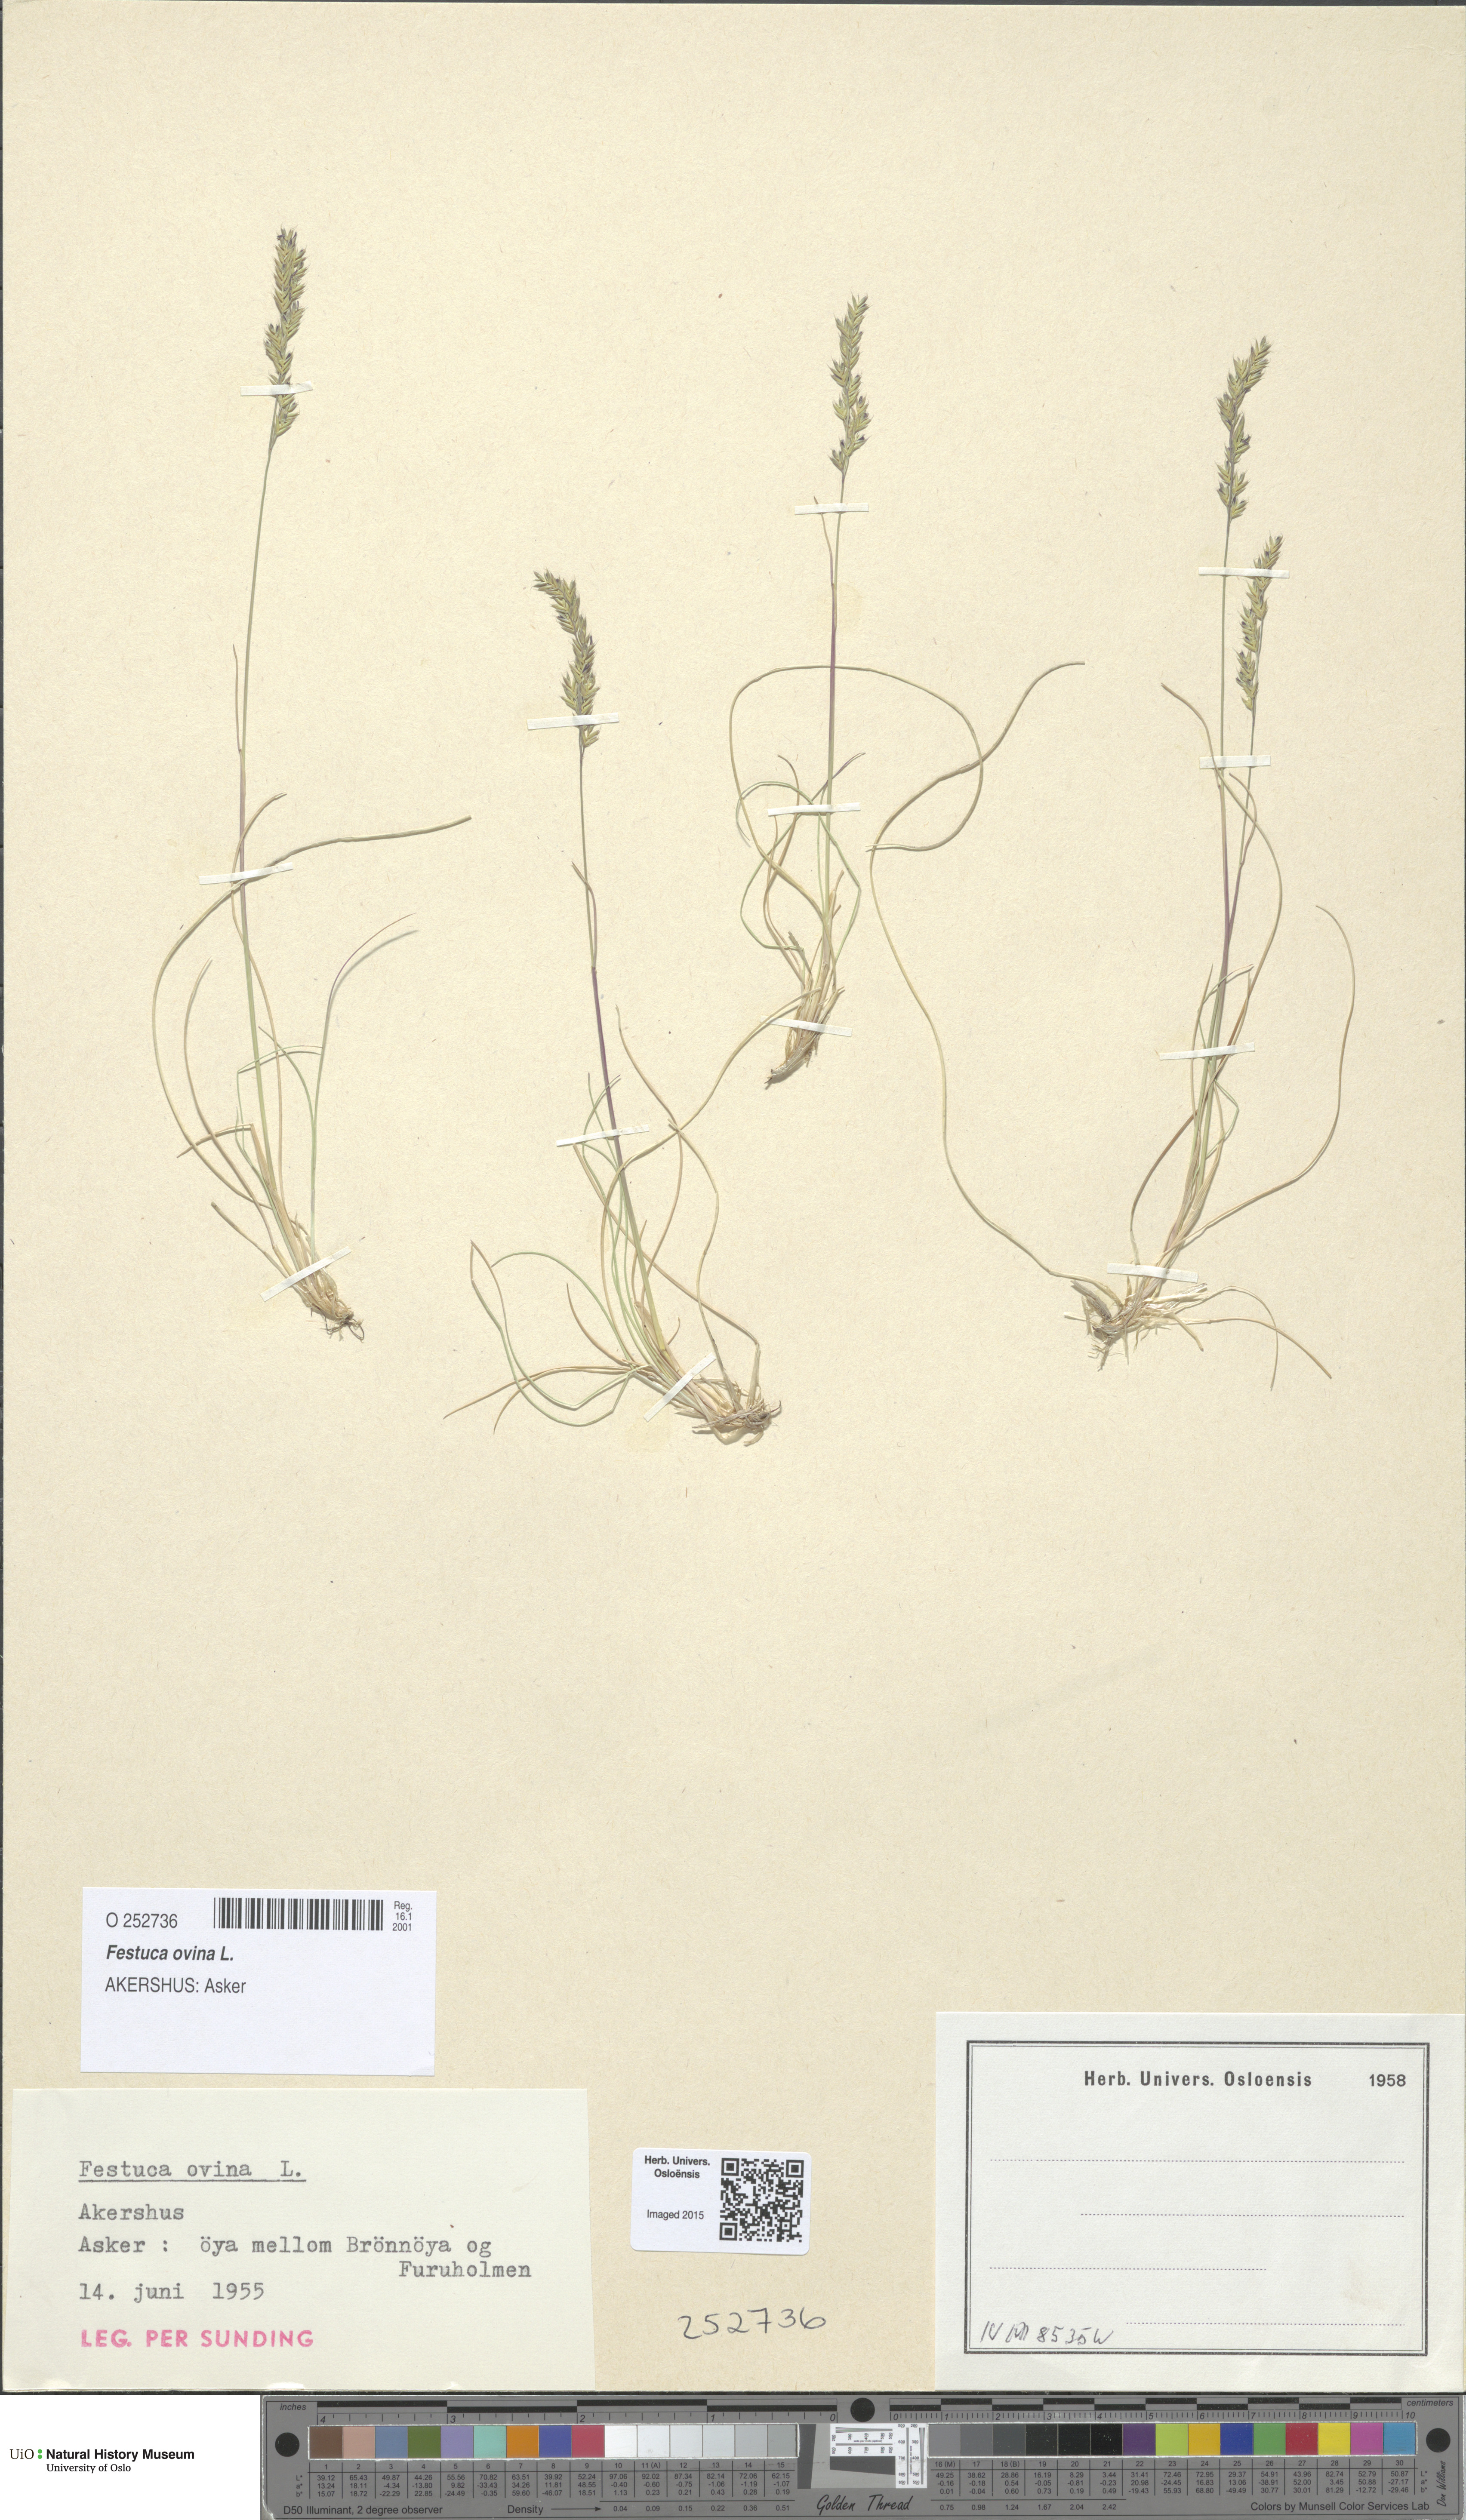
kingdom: Plantae
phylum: Tracheophyta
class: Liliopsida
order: Poales
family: Poaceae
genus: Festuca
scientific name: Festuca ovina
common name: Sheep fescue
